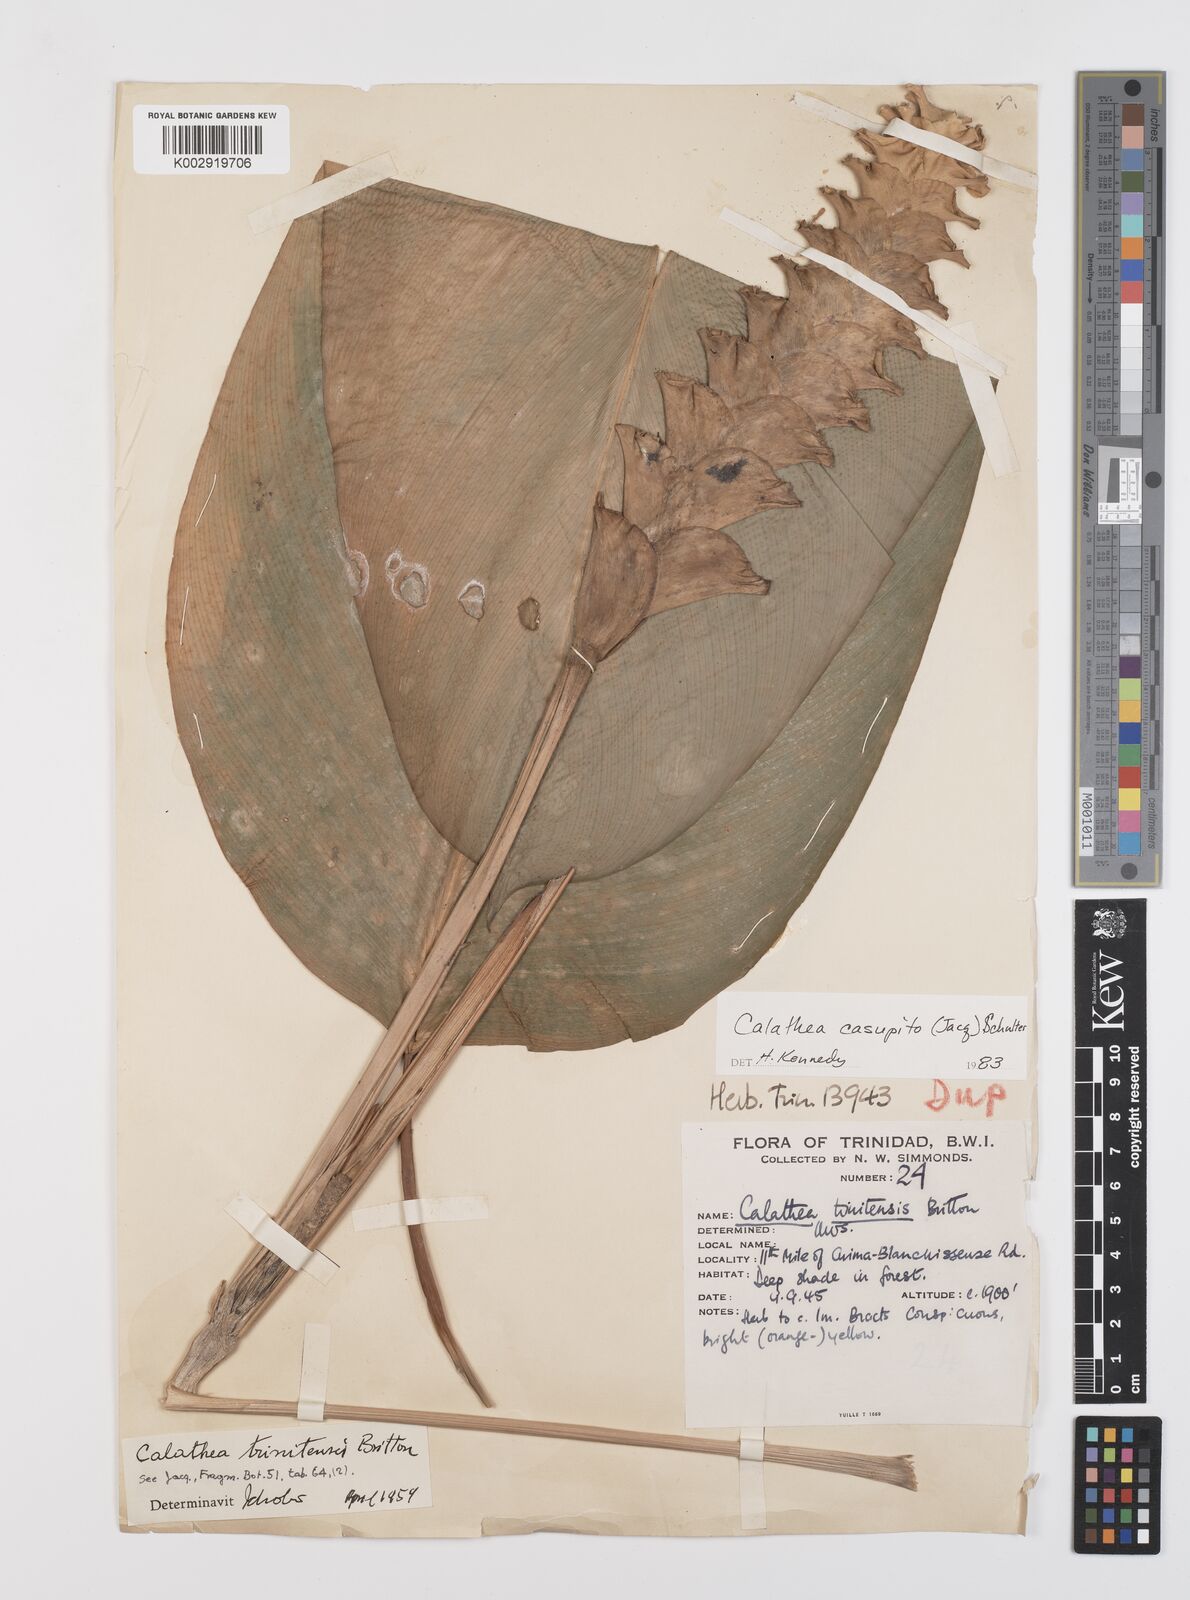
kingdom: Plantae
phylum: Tracheophyta
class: Liliopsida
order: Zingiberales
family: Marantaceae
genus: Calathea
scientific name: Calathea casupito
